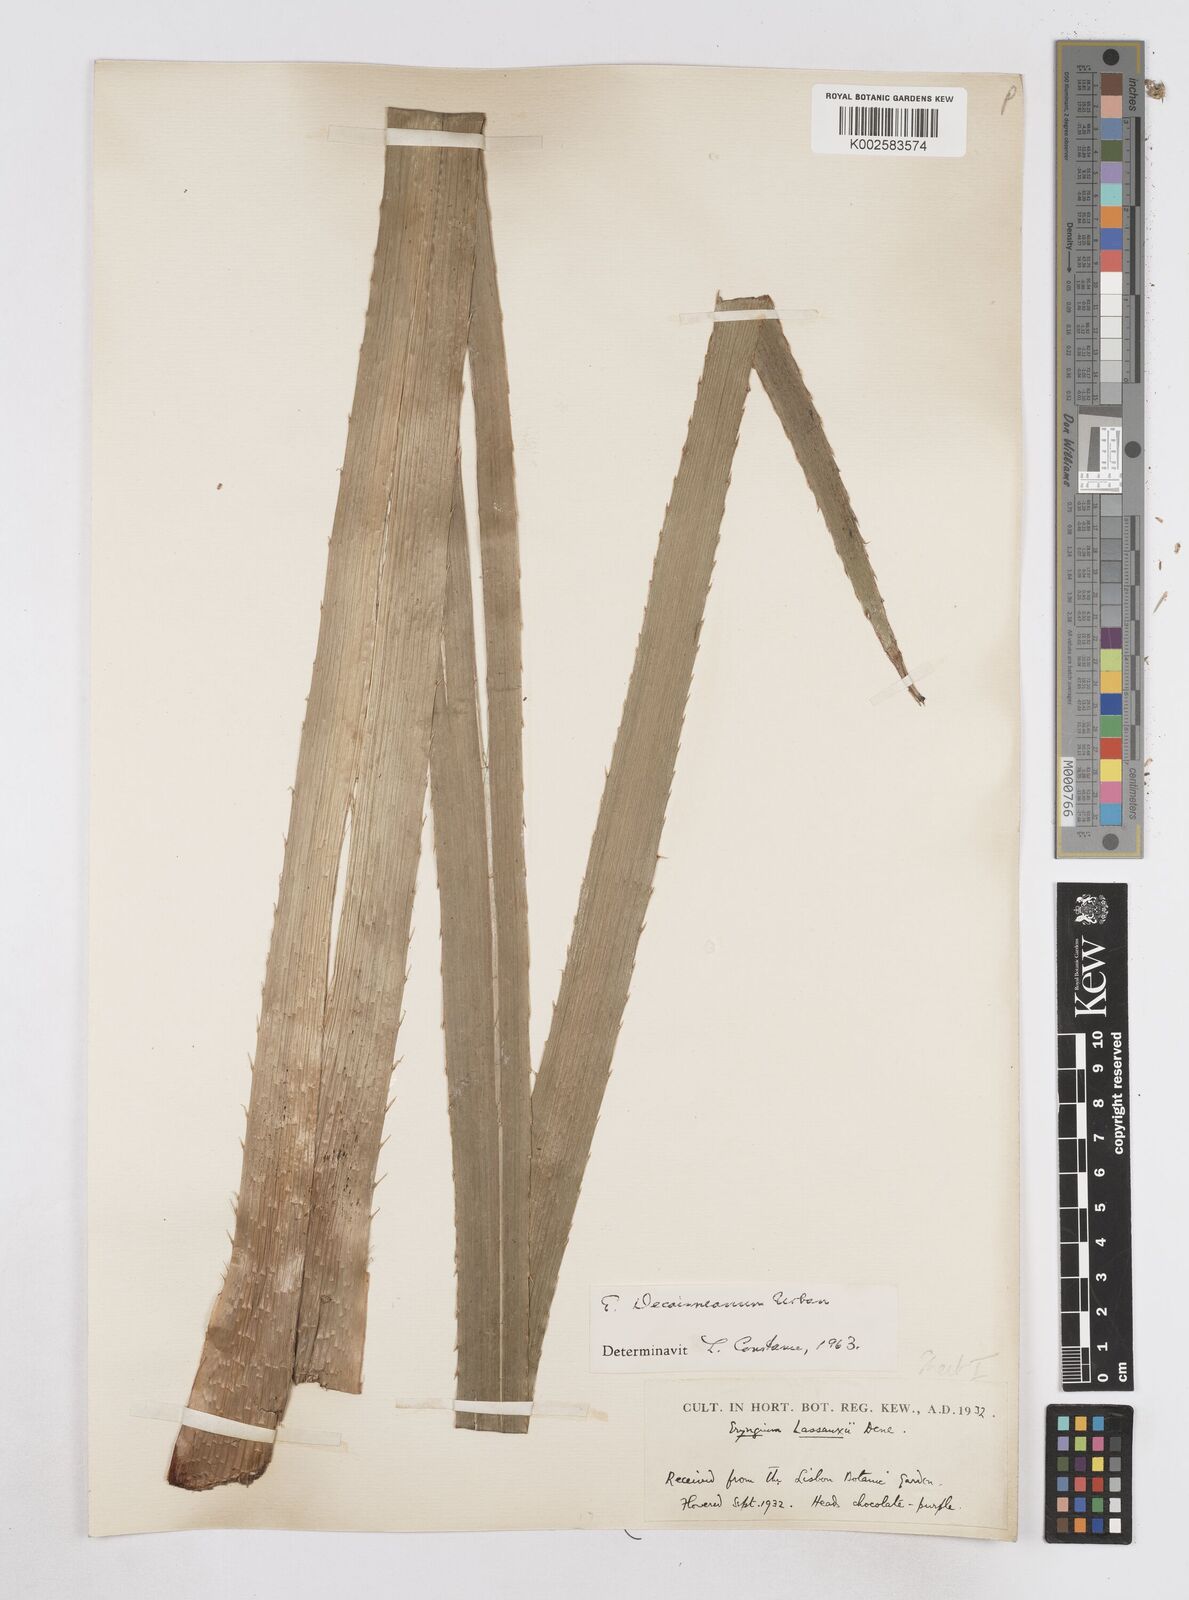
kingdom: Plantae
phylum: Tracheophyta
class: Magnoliopsida
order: Apiales
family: Apiaceae
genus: Eryngium
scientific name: Eryngium pandanifolium
